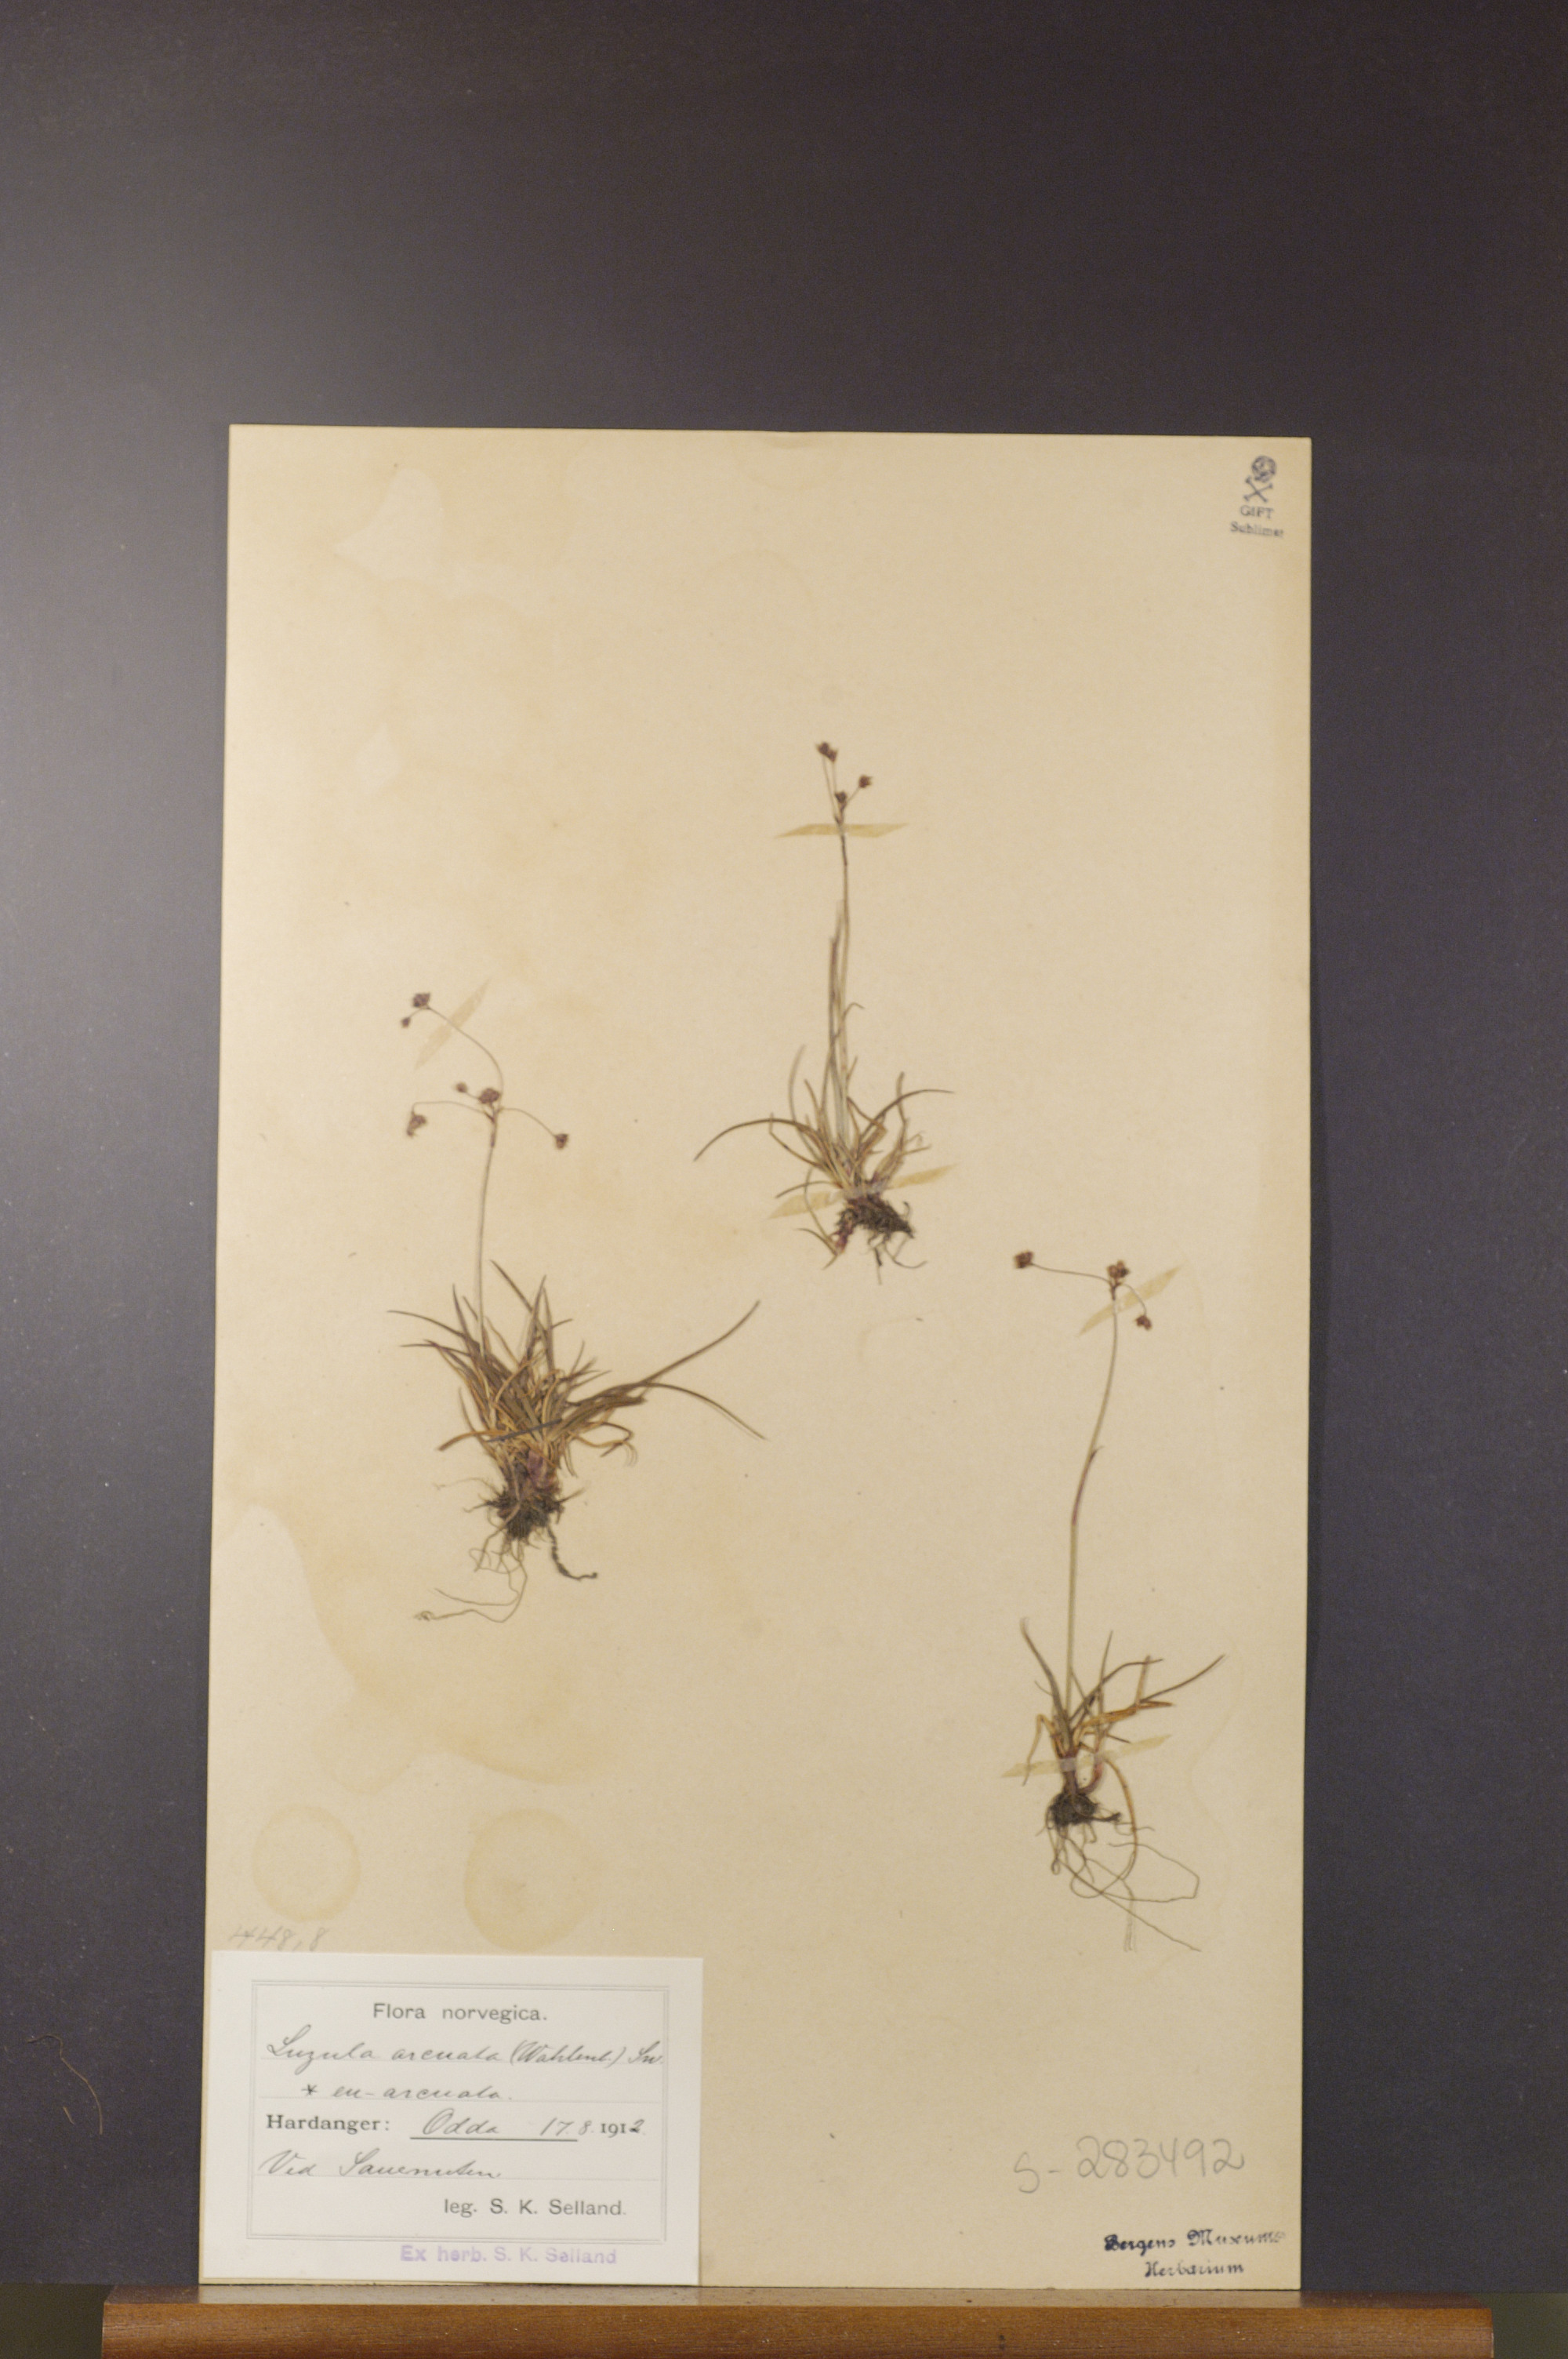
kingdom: Plantae
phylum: Tracheophyta
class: Liliopsida
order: Poales
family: Juncaceae
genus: Luzula
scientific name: Luzula arcuata
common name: Curved wood-rush
